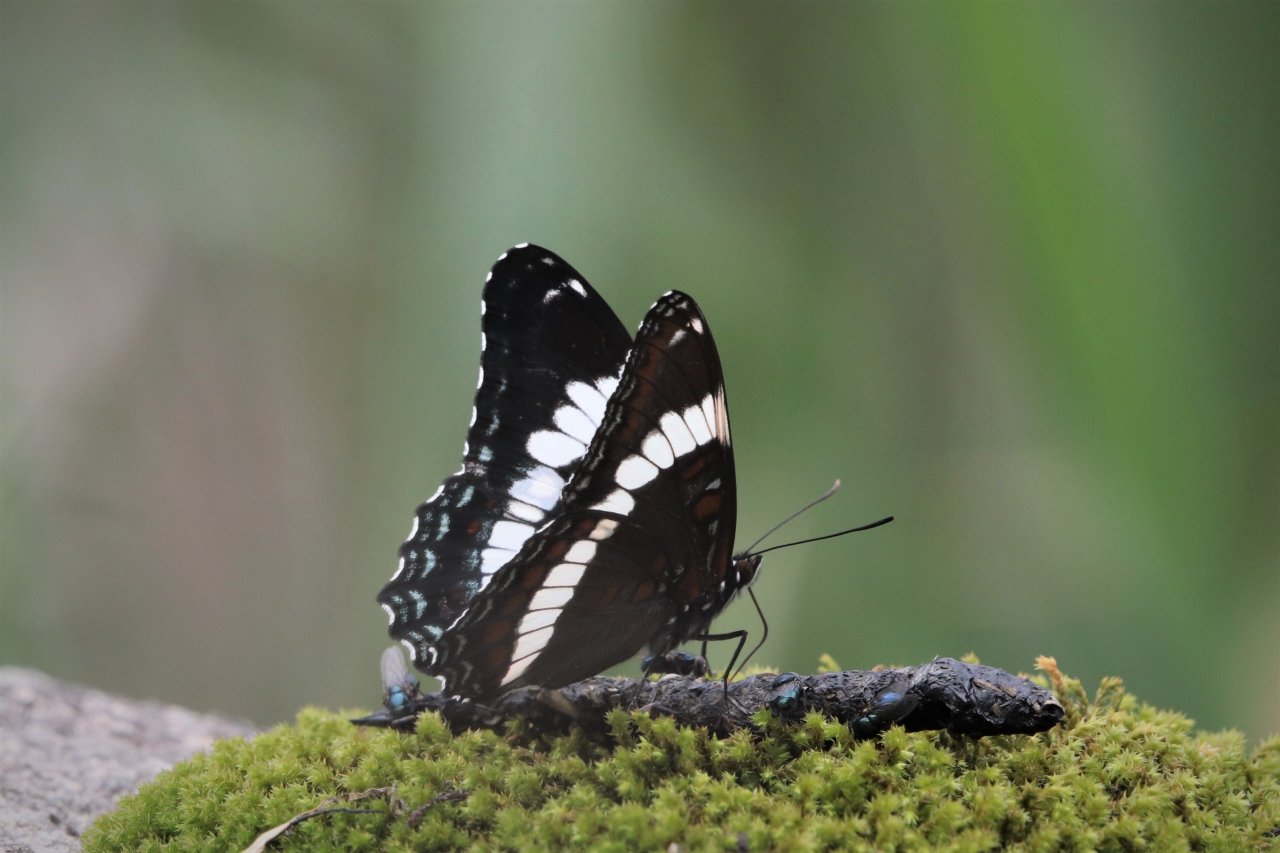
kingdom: Animalia
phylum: Arthropoda
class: Insecta
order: Lepidoptera
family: Nymphalidae
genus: Limenitis
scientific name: Limenitis arthemis
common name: Red-spotted Admiral
